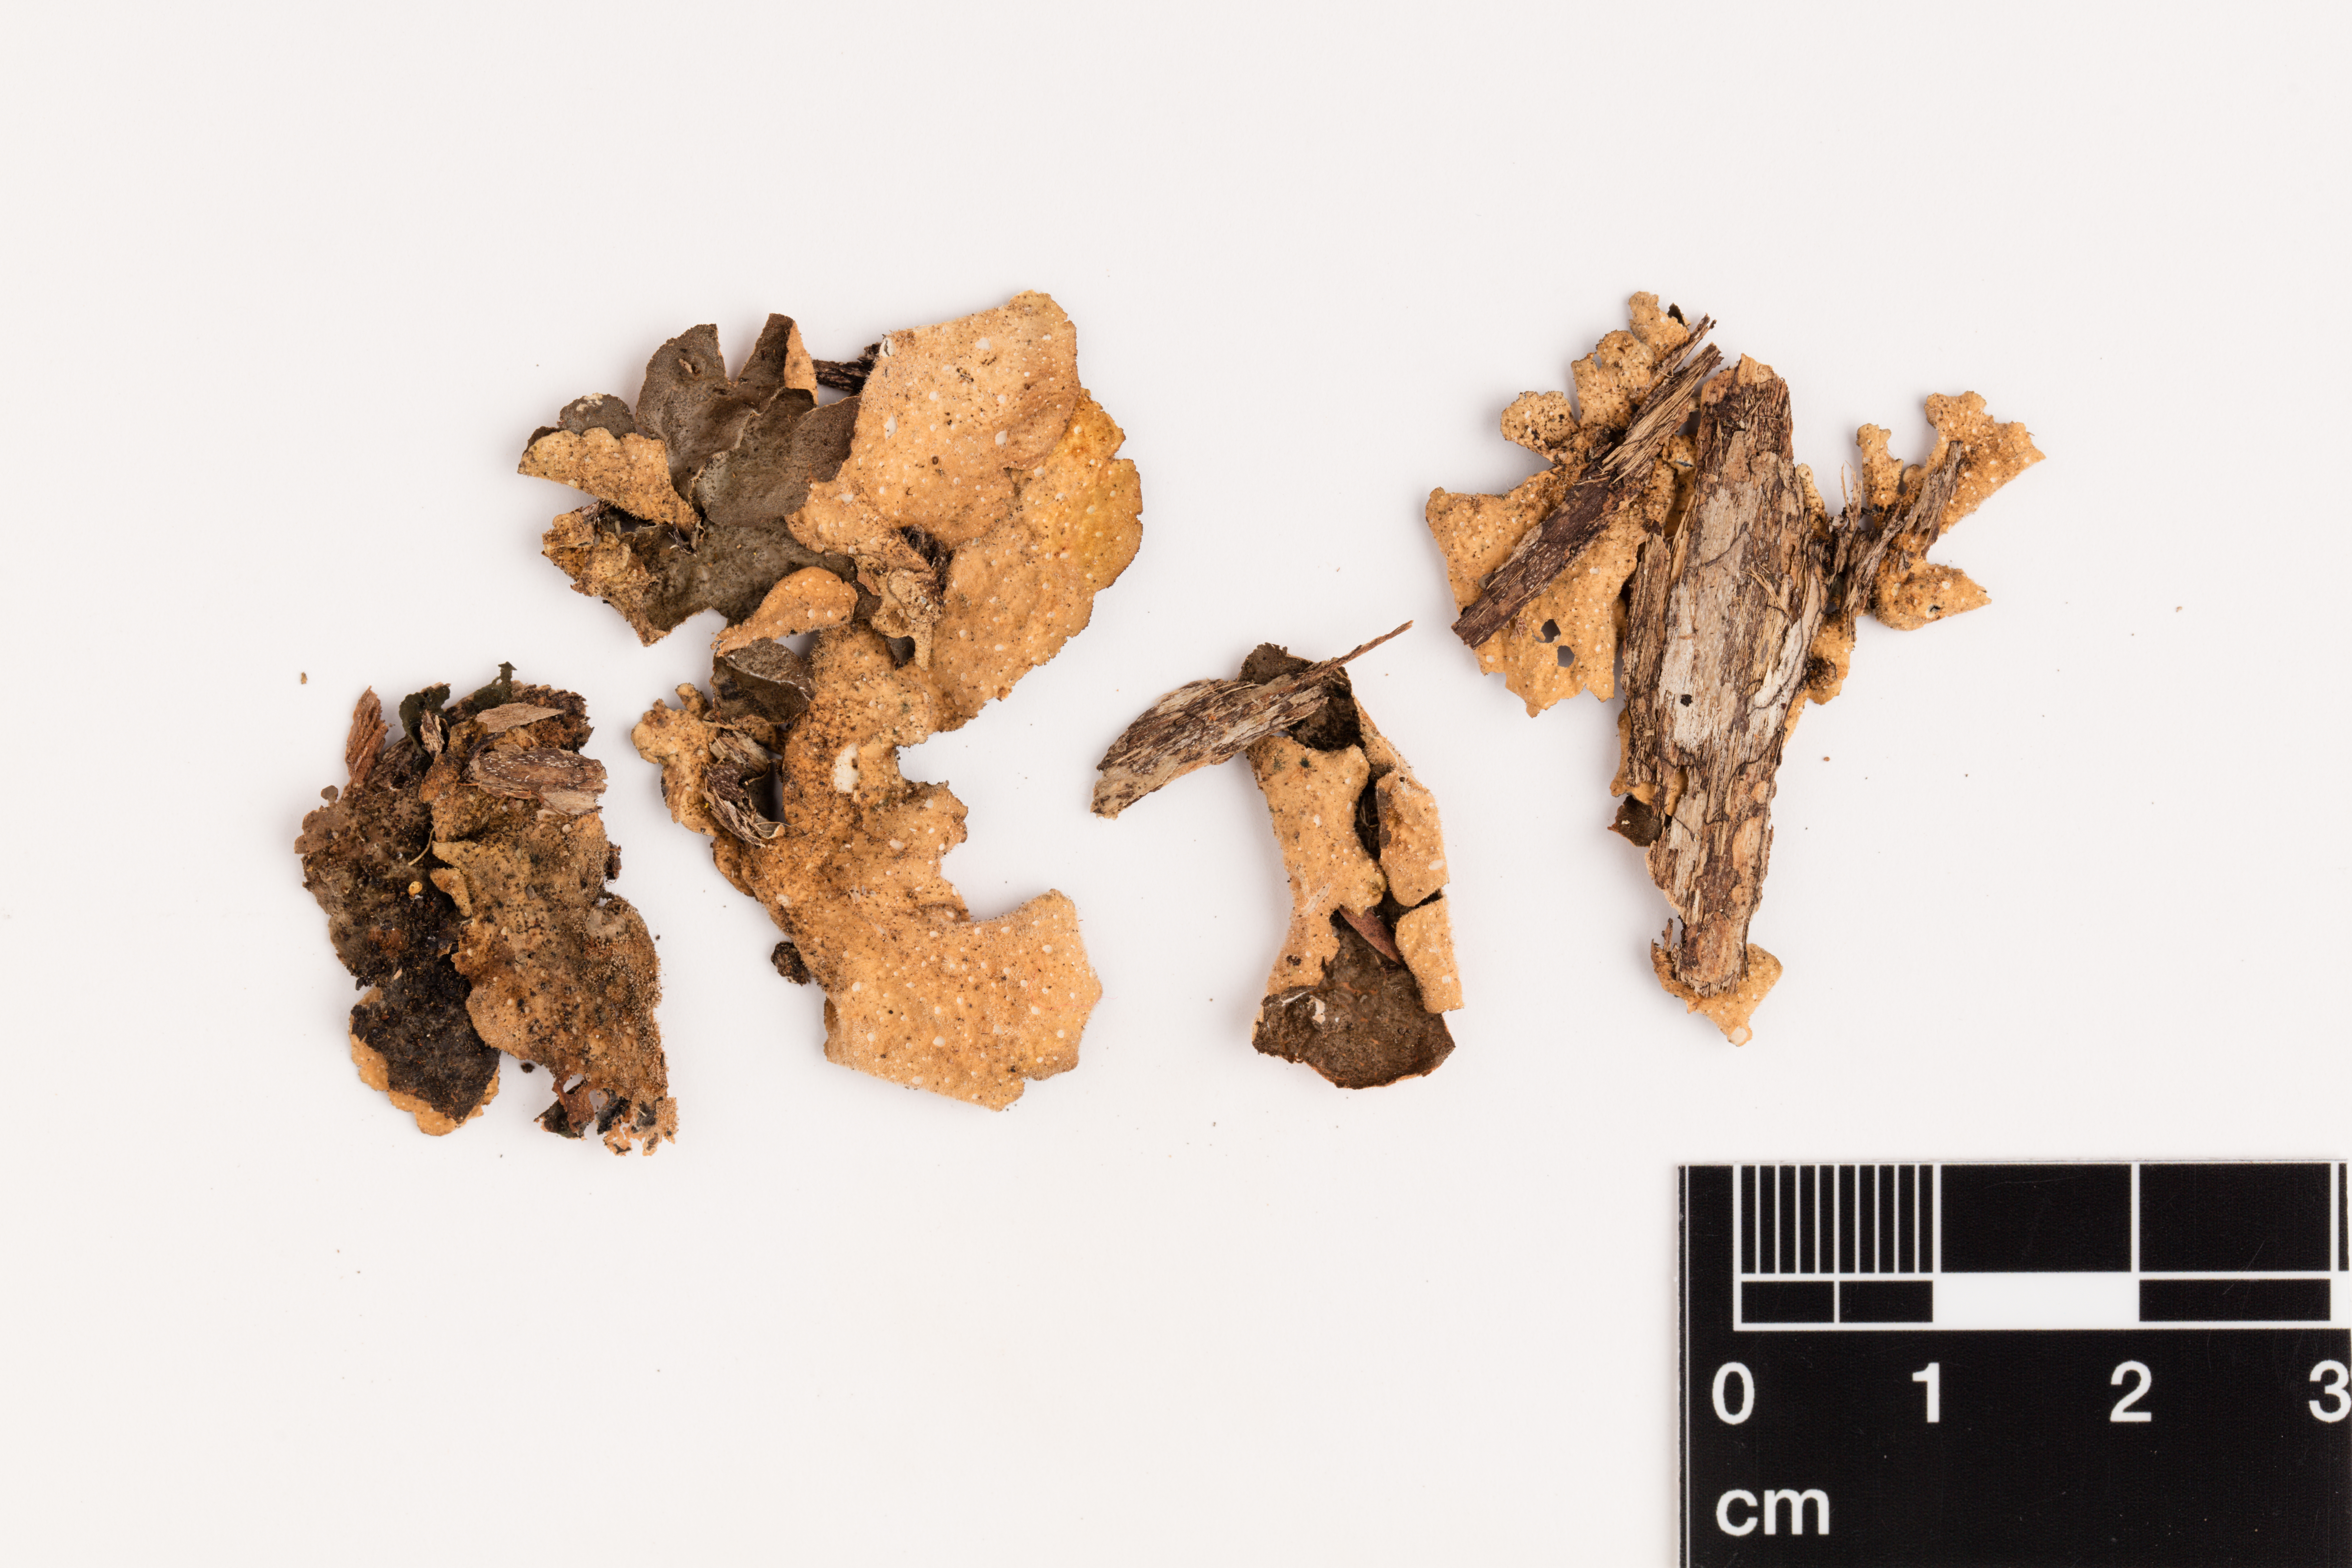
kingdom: Fungi
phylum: Ascomycota
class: Lecanoromycetes
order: Peltigerales
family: Lobariaceae
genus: Sticta
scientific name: Sticta fuliginosa
